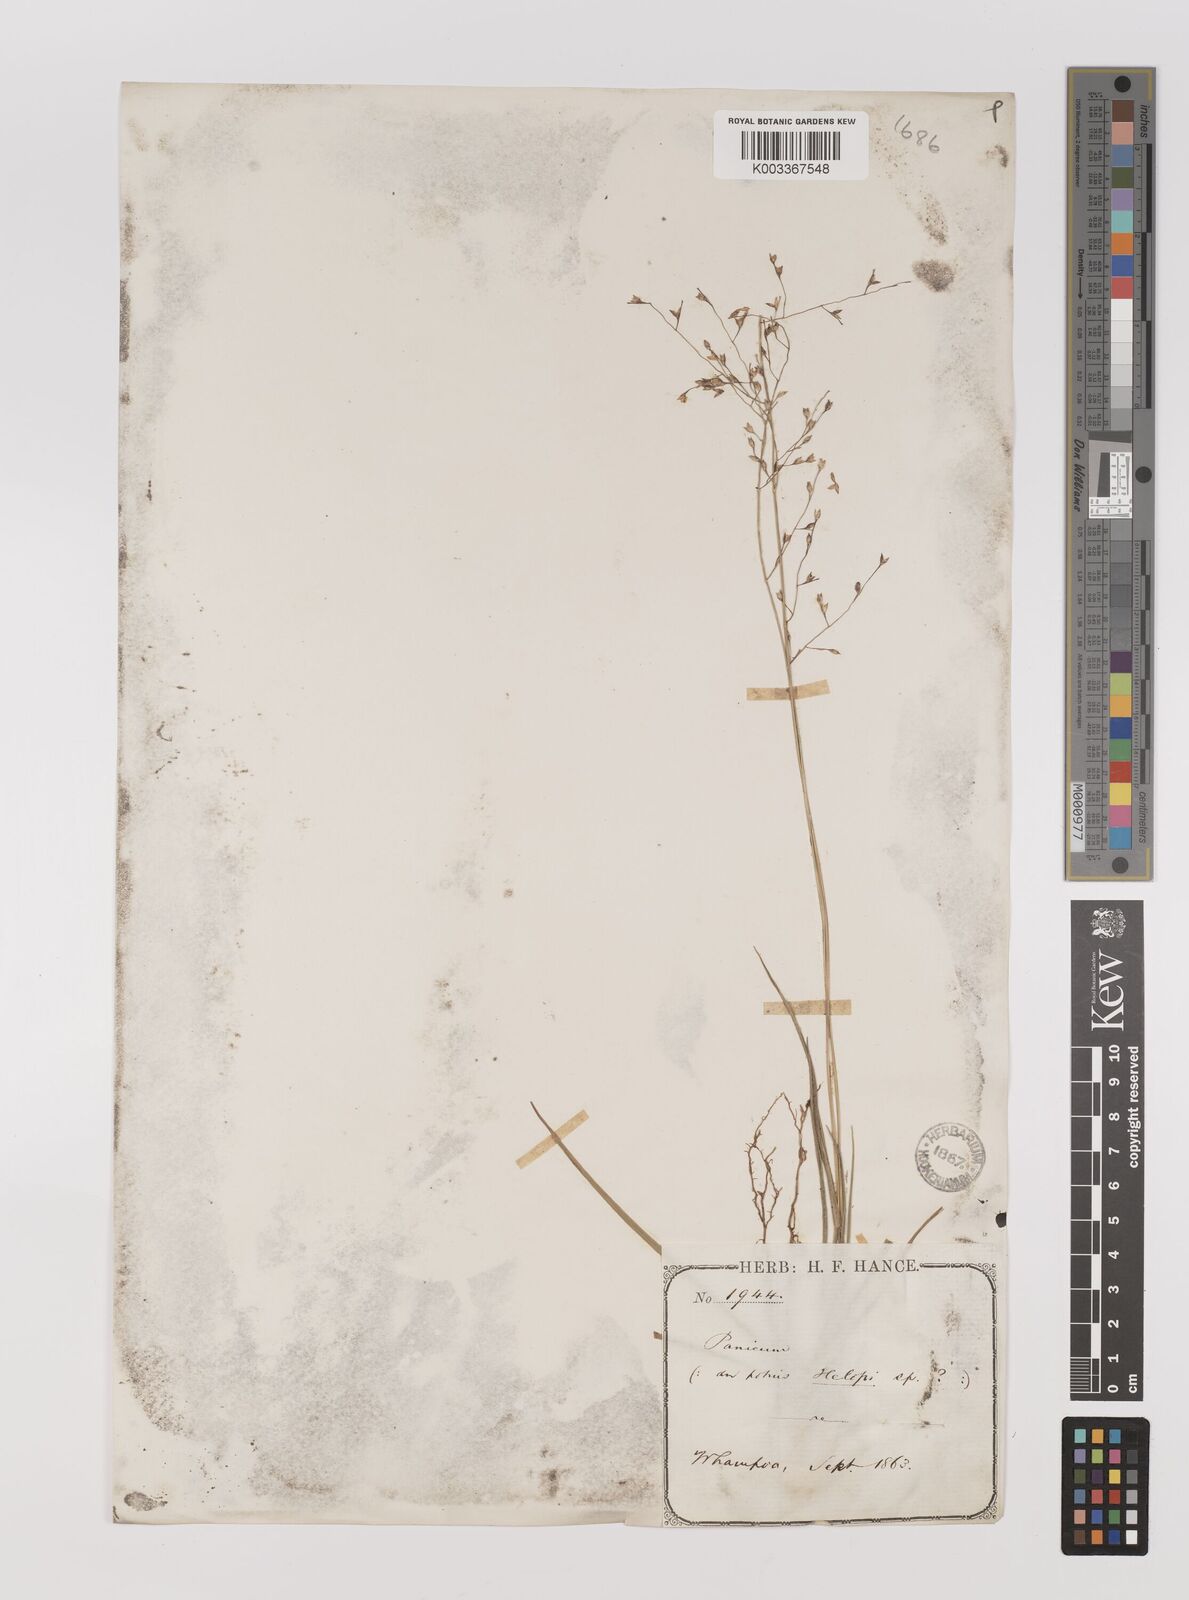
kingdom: Plantae
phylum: Tracheophyta
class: Liliopsida
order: Poales
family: Poaceae
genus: Panicum
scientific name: Panicum elegantissimum
